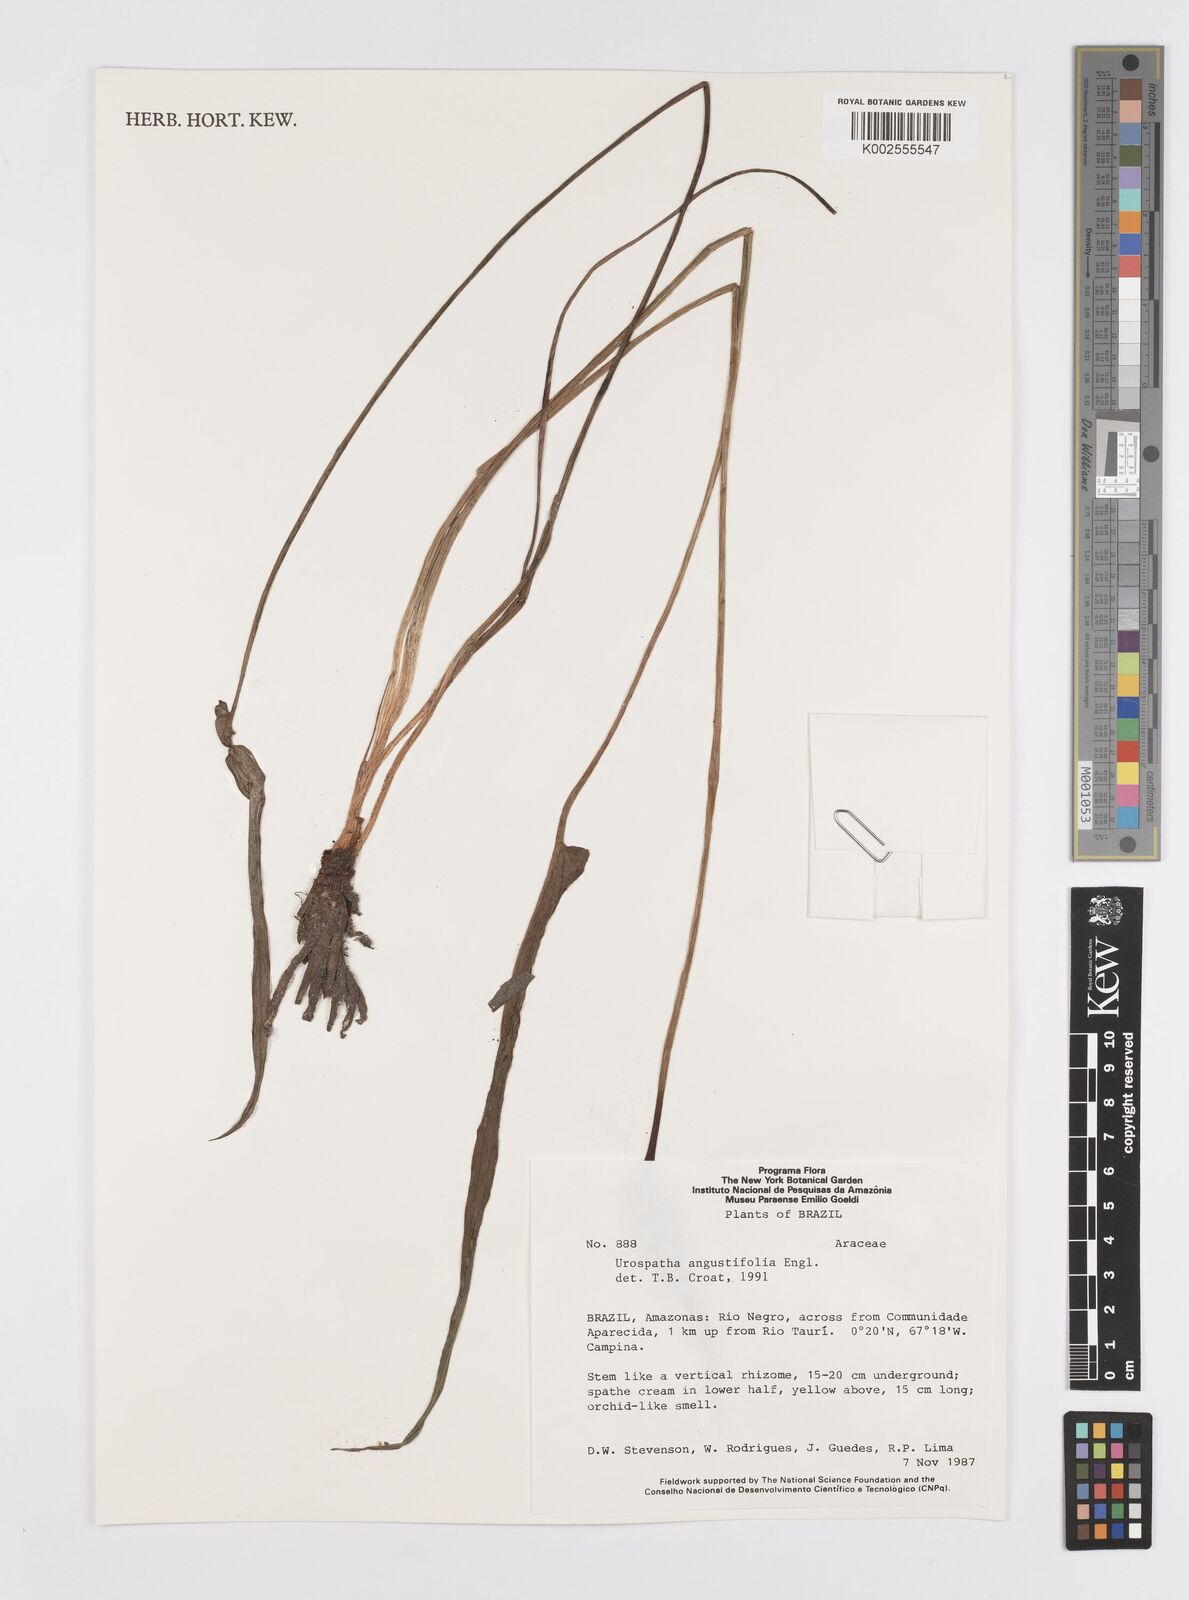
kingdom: Plantae
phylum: Tracheophyta
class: Liliopsida
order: Alismatales
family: Araceae
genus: Urospatha
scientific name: Urospatha angustiloba
